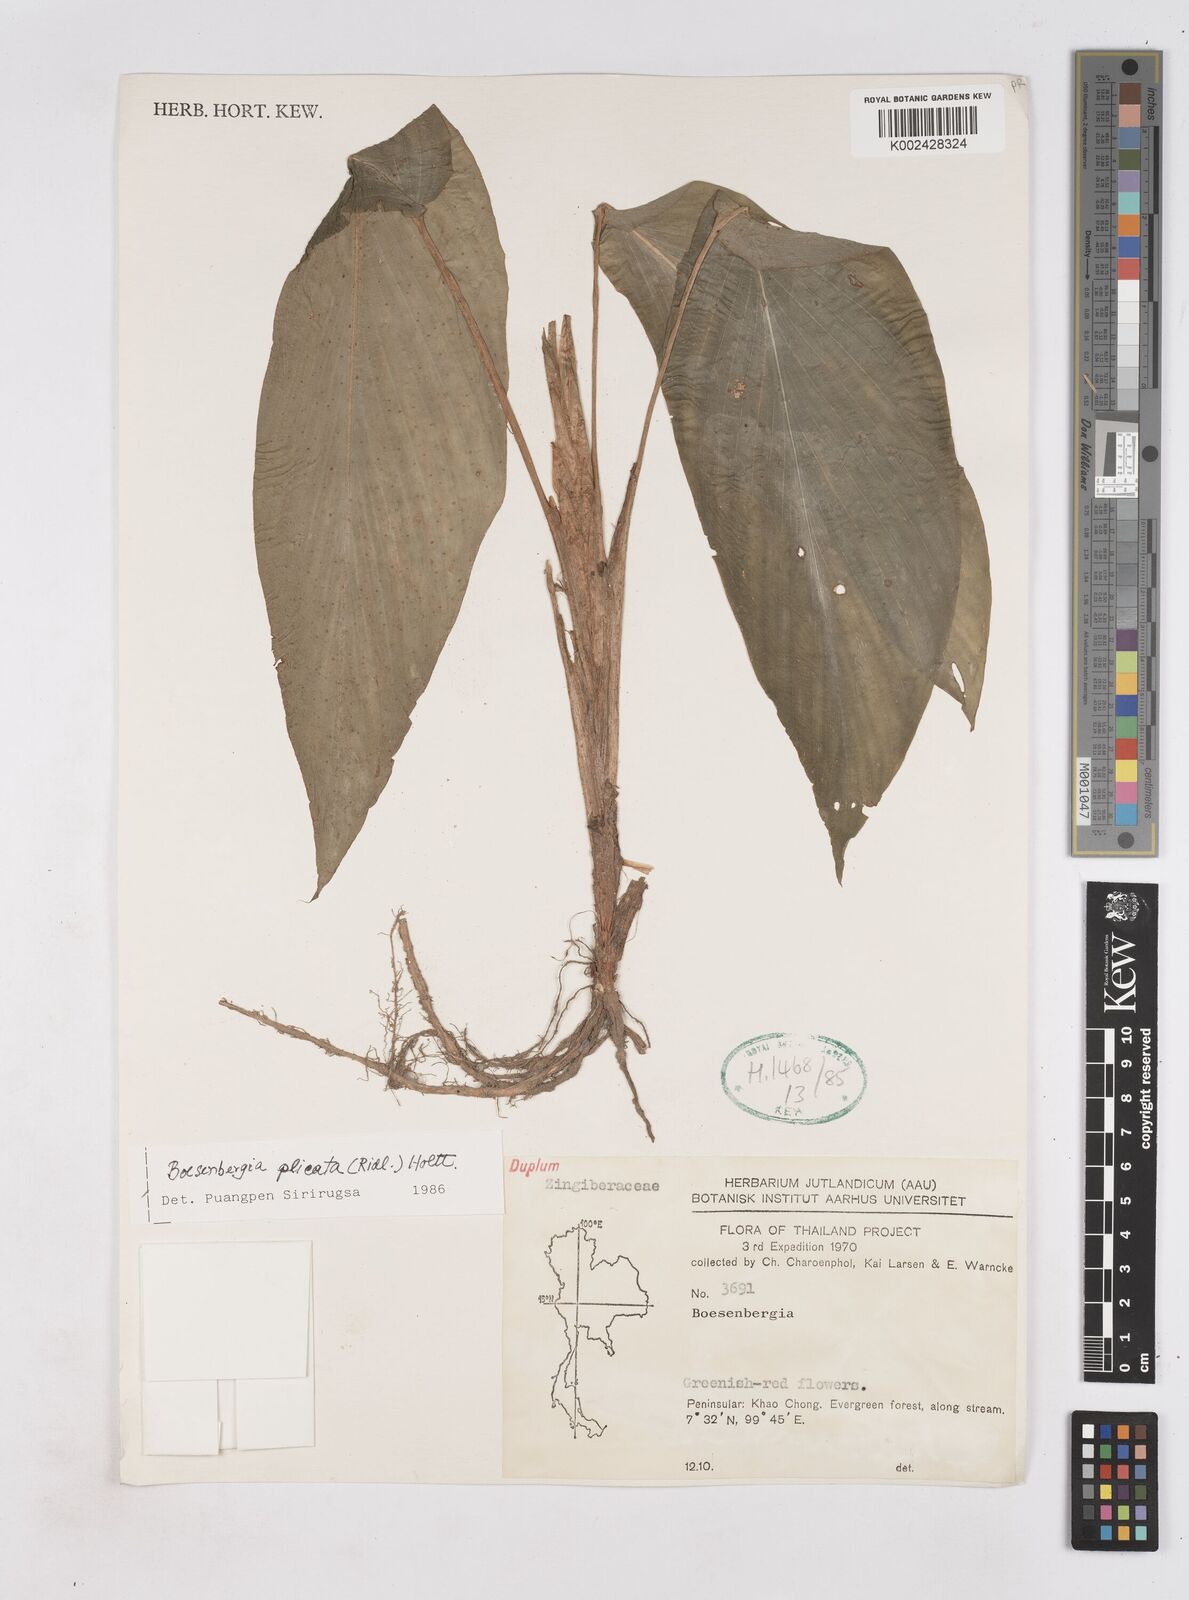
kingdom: Plantae
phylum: Tracheophyta
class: Liliopsida
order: Zingiberales
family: Zingiberaceae
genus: Boesenbergia
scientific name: Boesenbergia plicata
